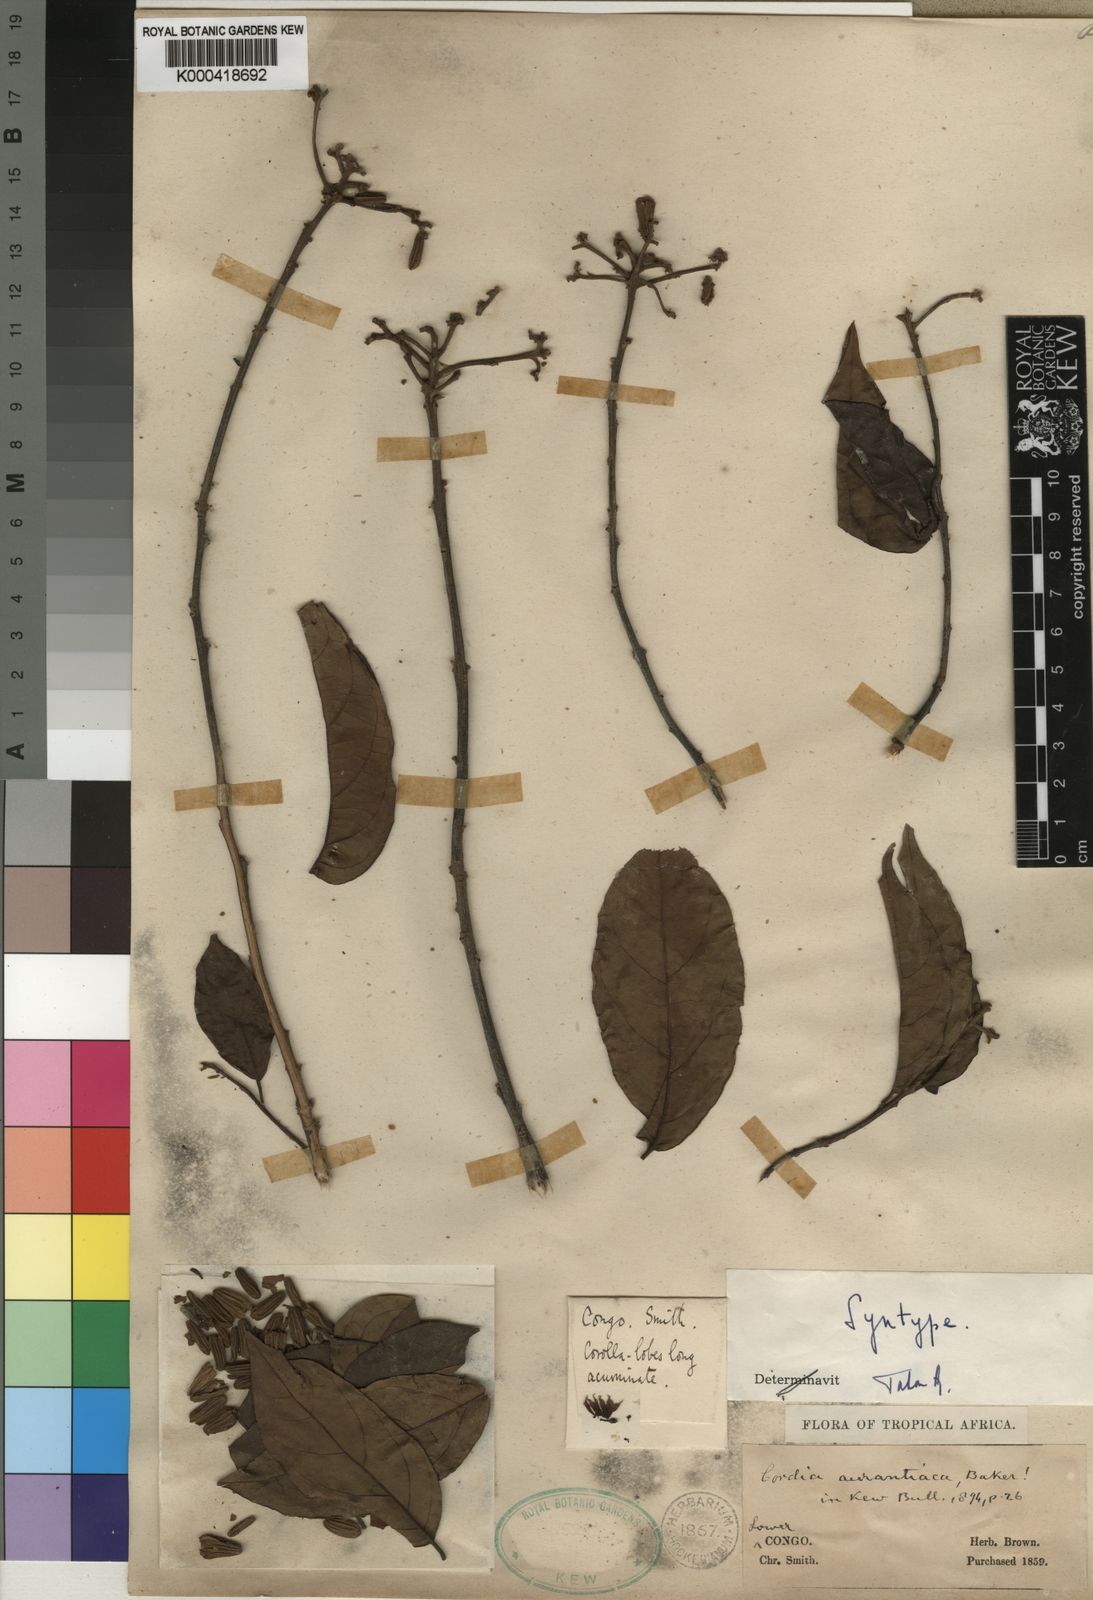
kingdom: Plantae
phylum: Tracheophyta
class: Magnoliopsida
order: Boraginales
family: Cordiaceae
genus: Cordia
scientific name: Cordia aurantiaca
